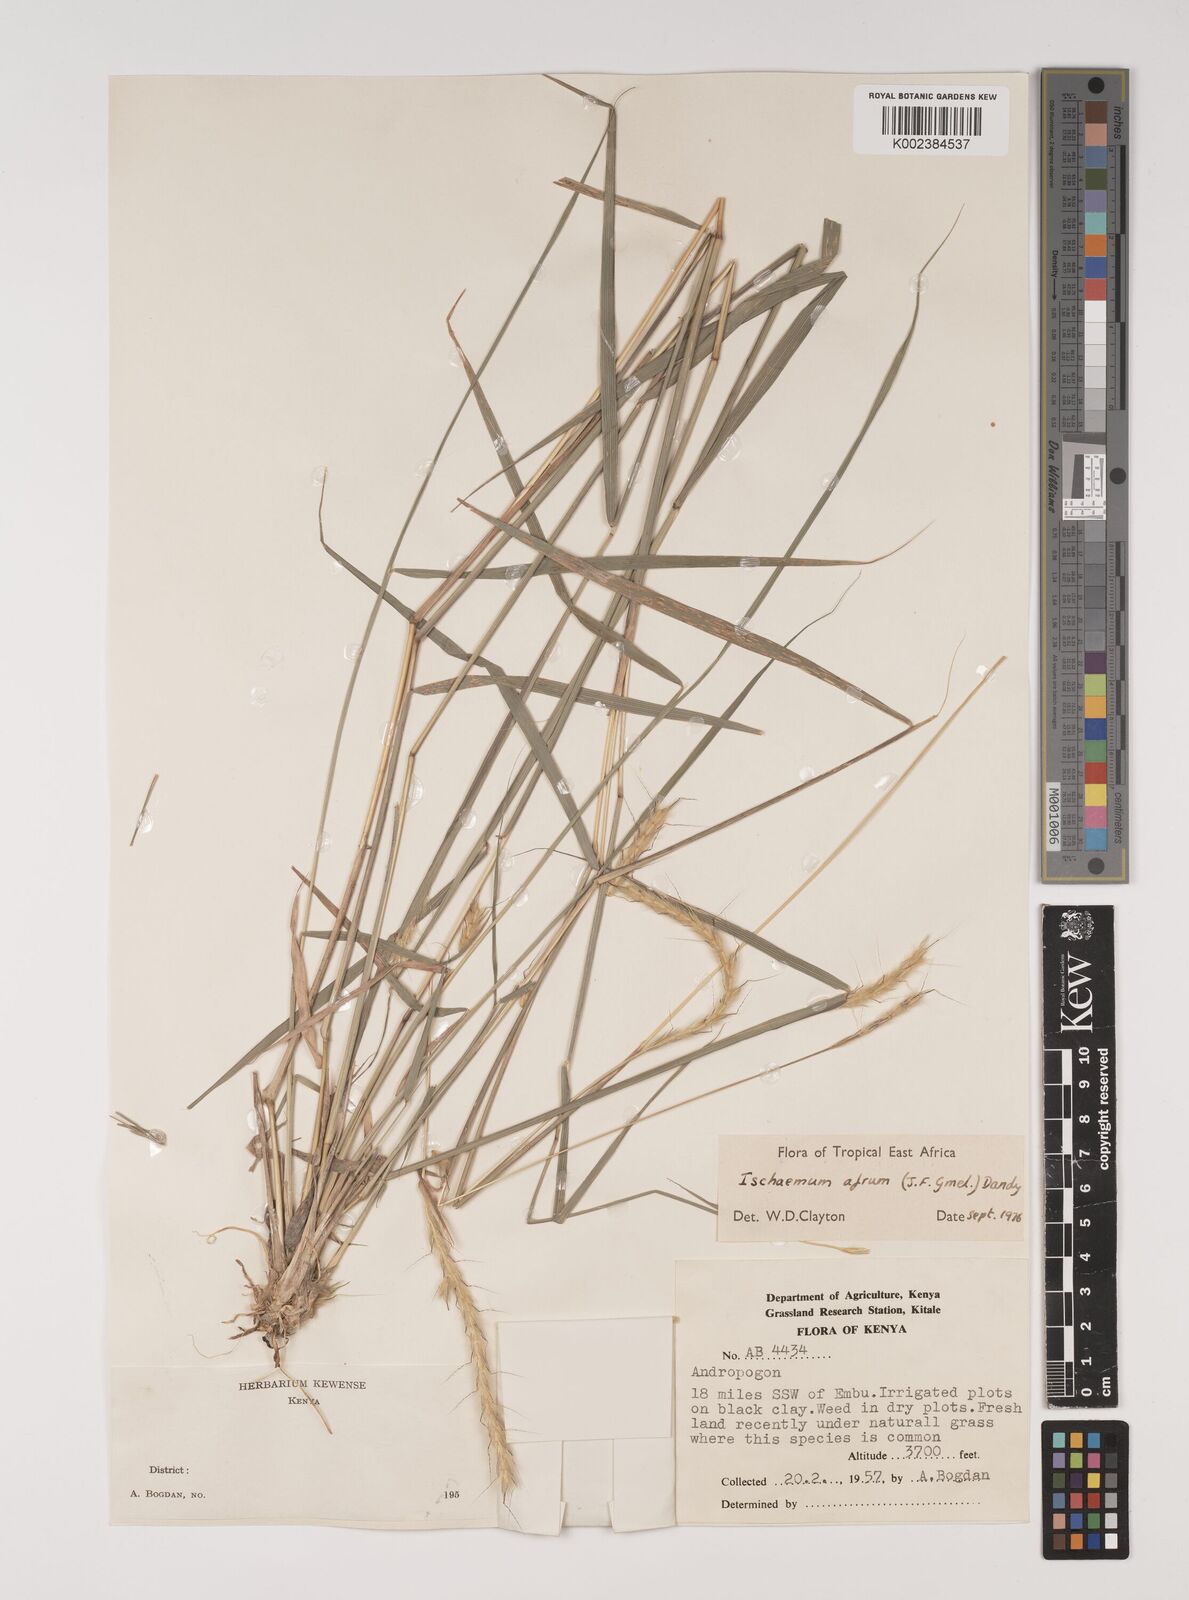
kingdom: Plantae
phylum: Tracheophyta
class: Liliopsida
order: Poales
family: Poaceae
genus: Ischaemum
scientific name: Ischaemum afrum
